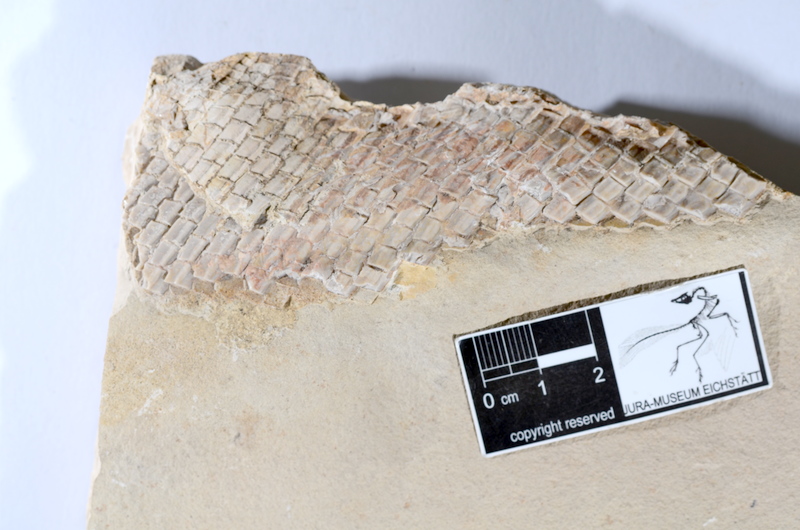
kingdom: Animalia
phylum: Chordata
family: Callipurbeckiidae
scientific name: Callipurbeckiidae
